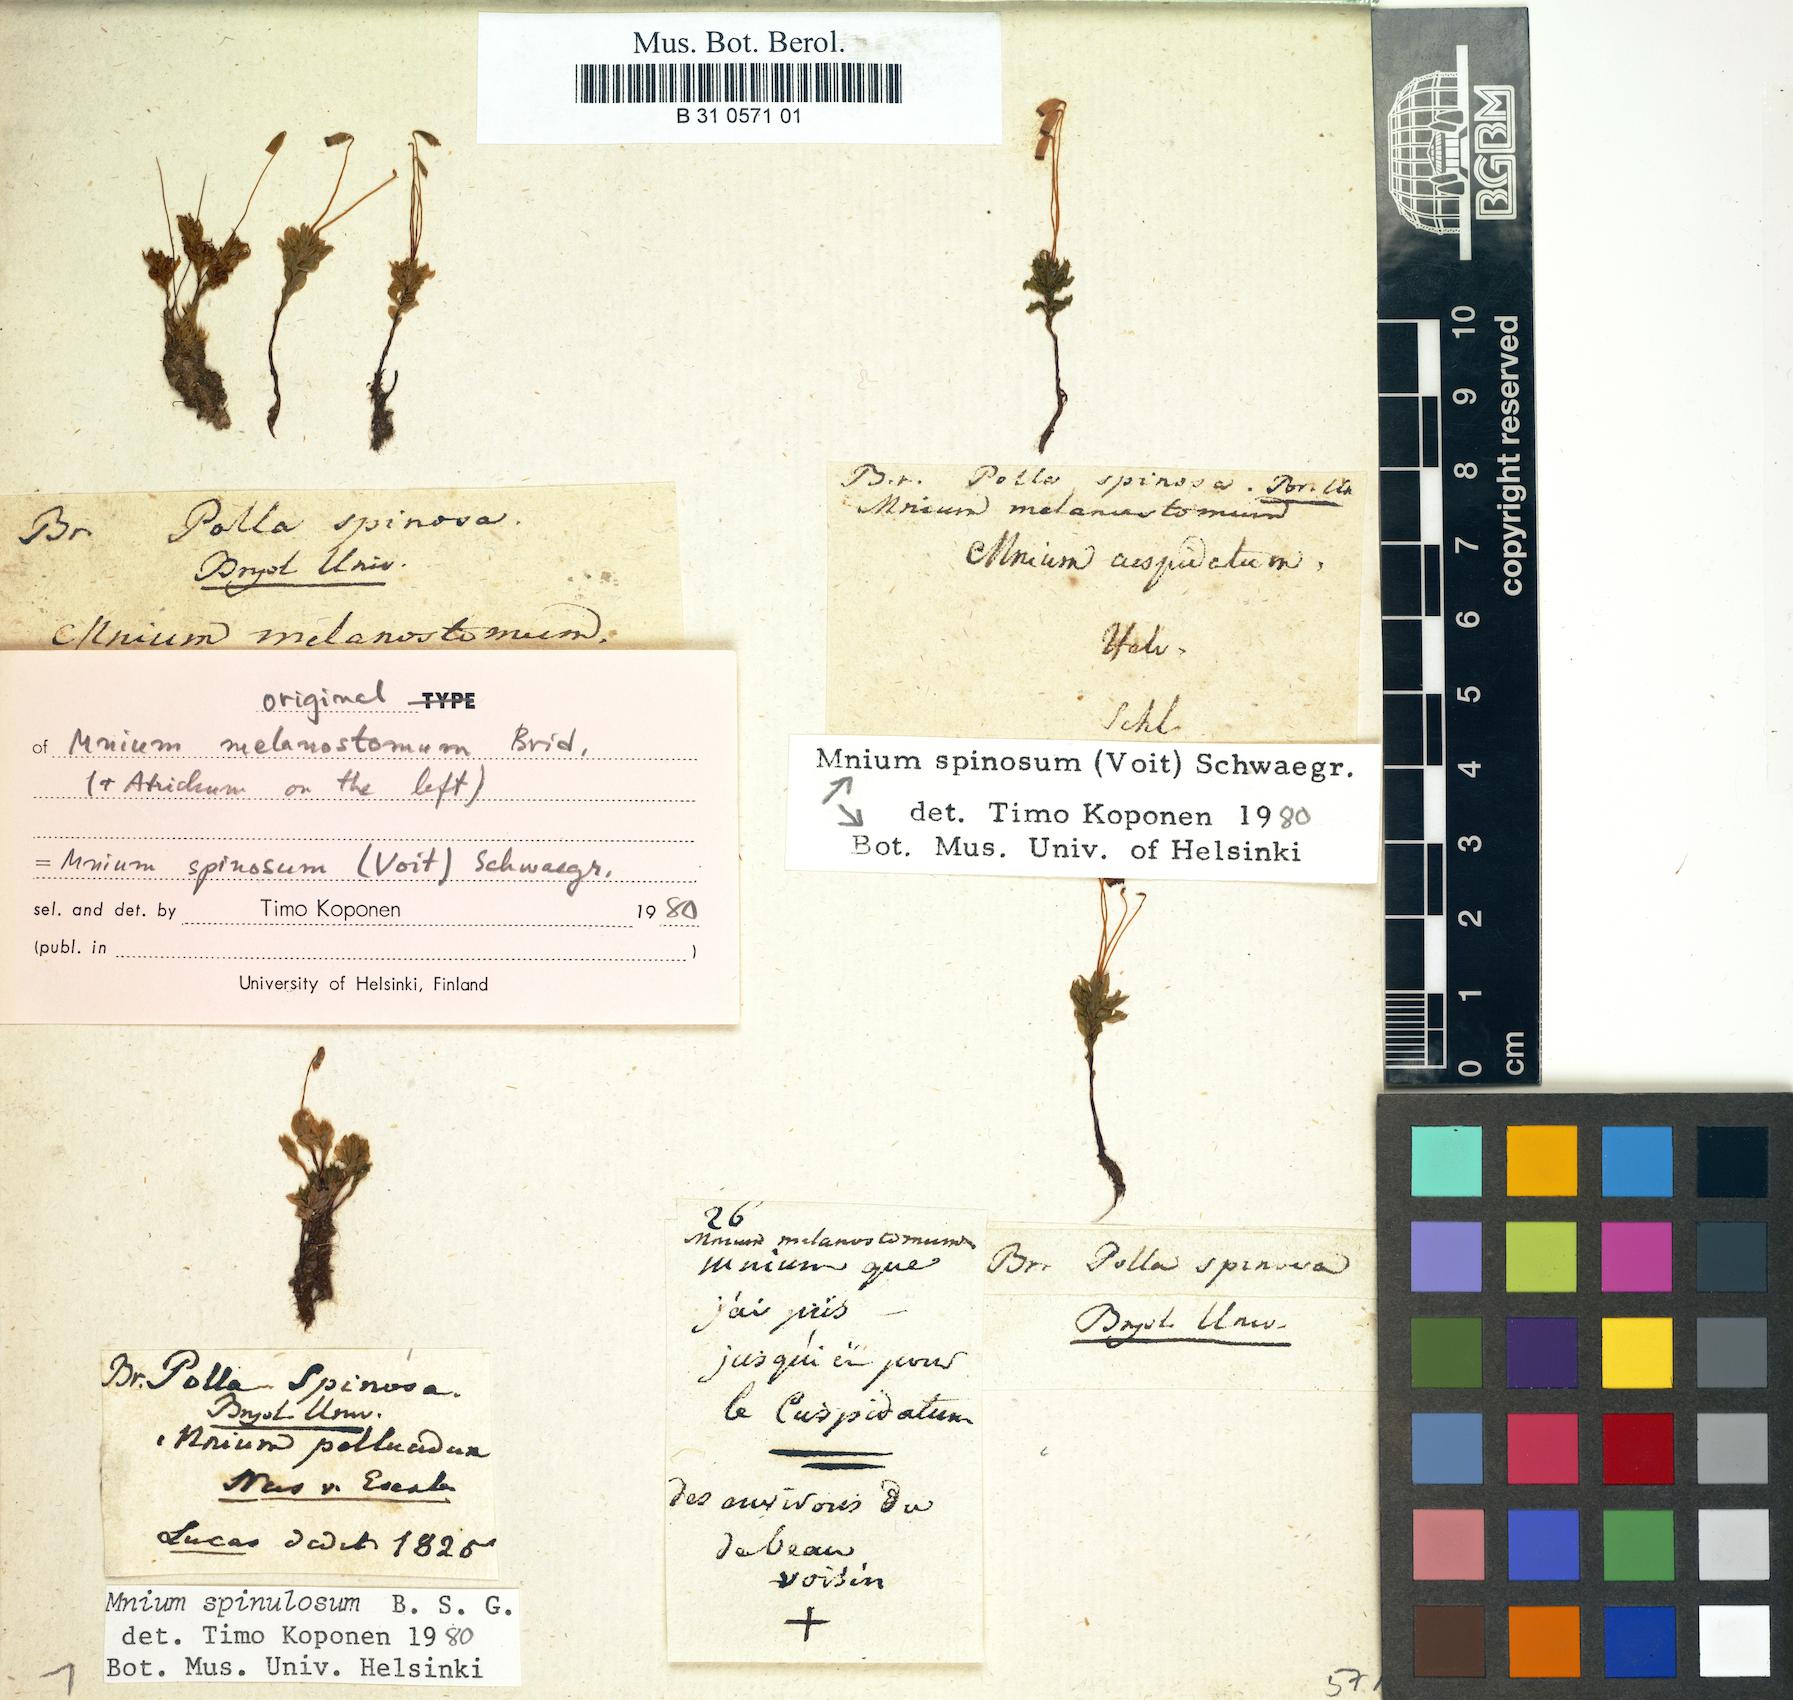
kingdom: Plantae
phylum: Bryophyta
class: Bryopsida
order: Bryales
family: Mniaceae
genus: Mnium
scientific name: Mnium spinosum
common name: Spinose thyme-moss
